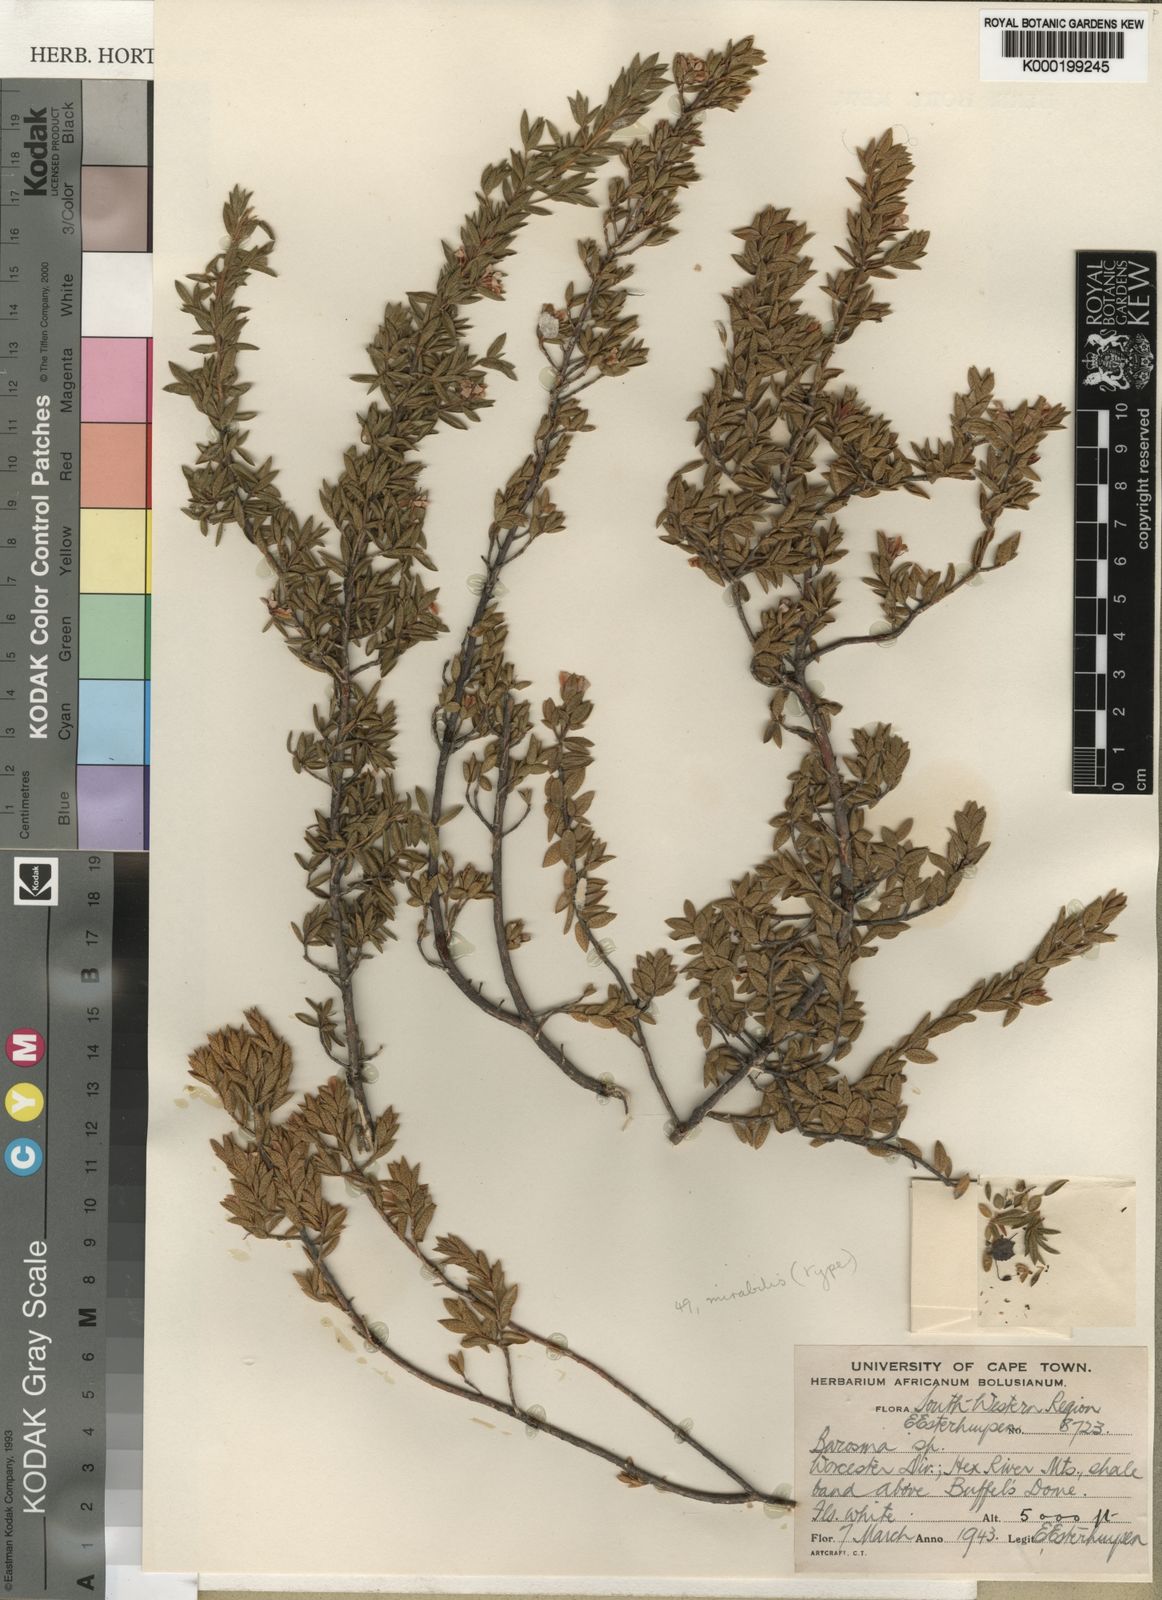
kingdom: Plantae
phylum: Tracheophyta
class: Magnoliopsida
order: Sapindales
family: Rutaceae
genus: Agathosma
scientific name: Agathosma mirabilis
